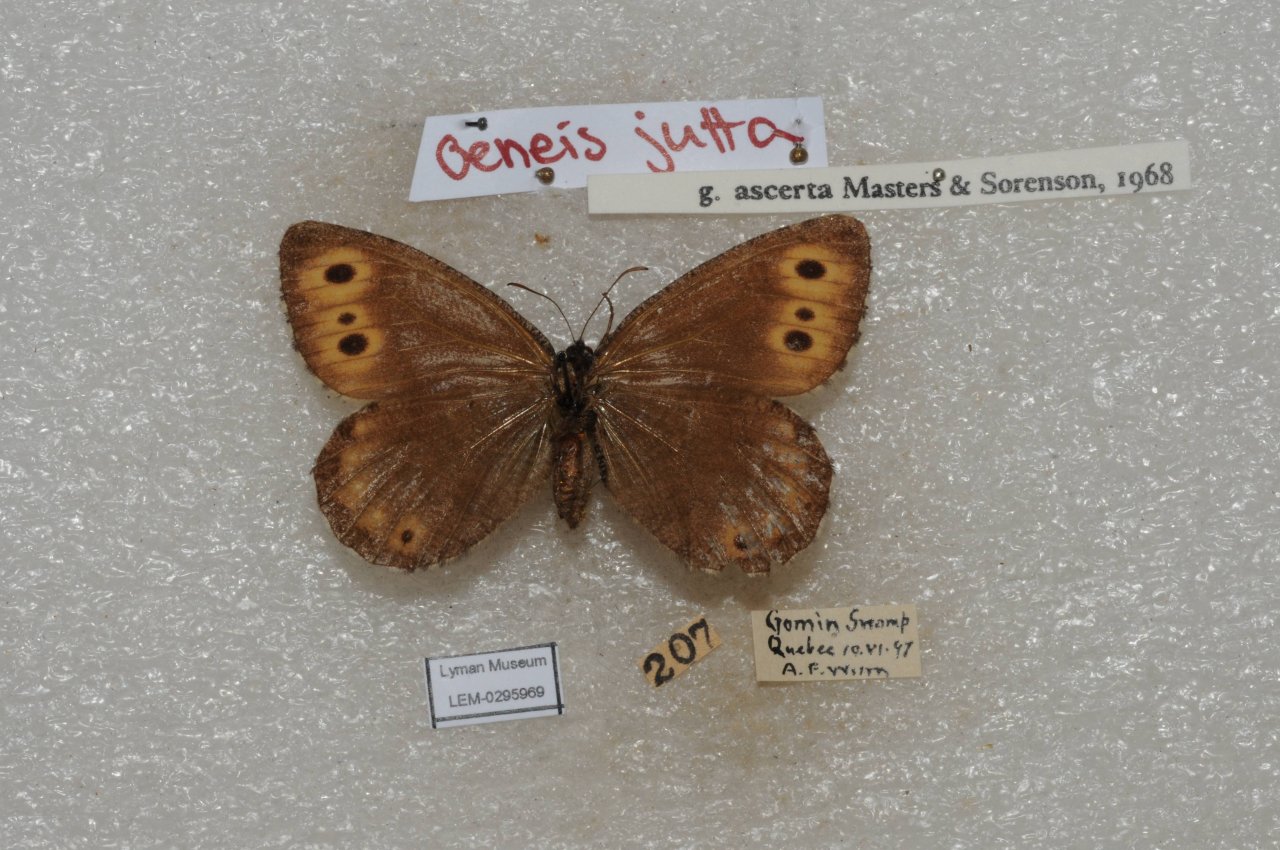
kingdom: Animalia
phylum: Arthropoda
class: Insecta
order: Lepidoptera
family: Nymphalidae
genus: Oeneis
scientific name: Oeneis jutta
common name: Jutta Arctic
